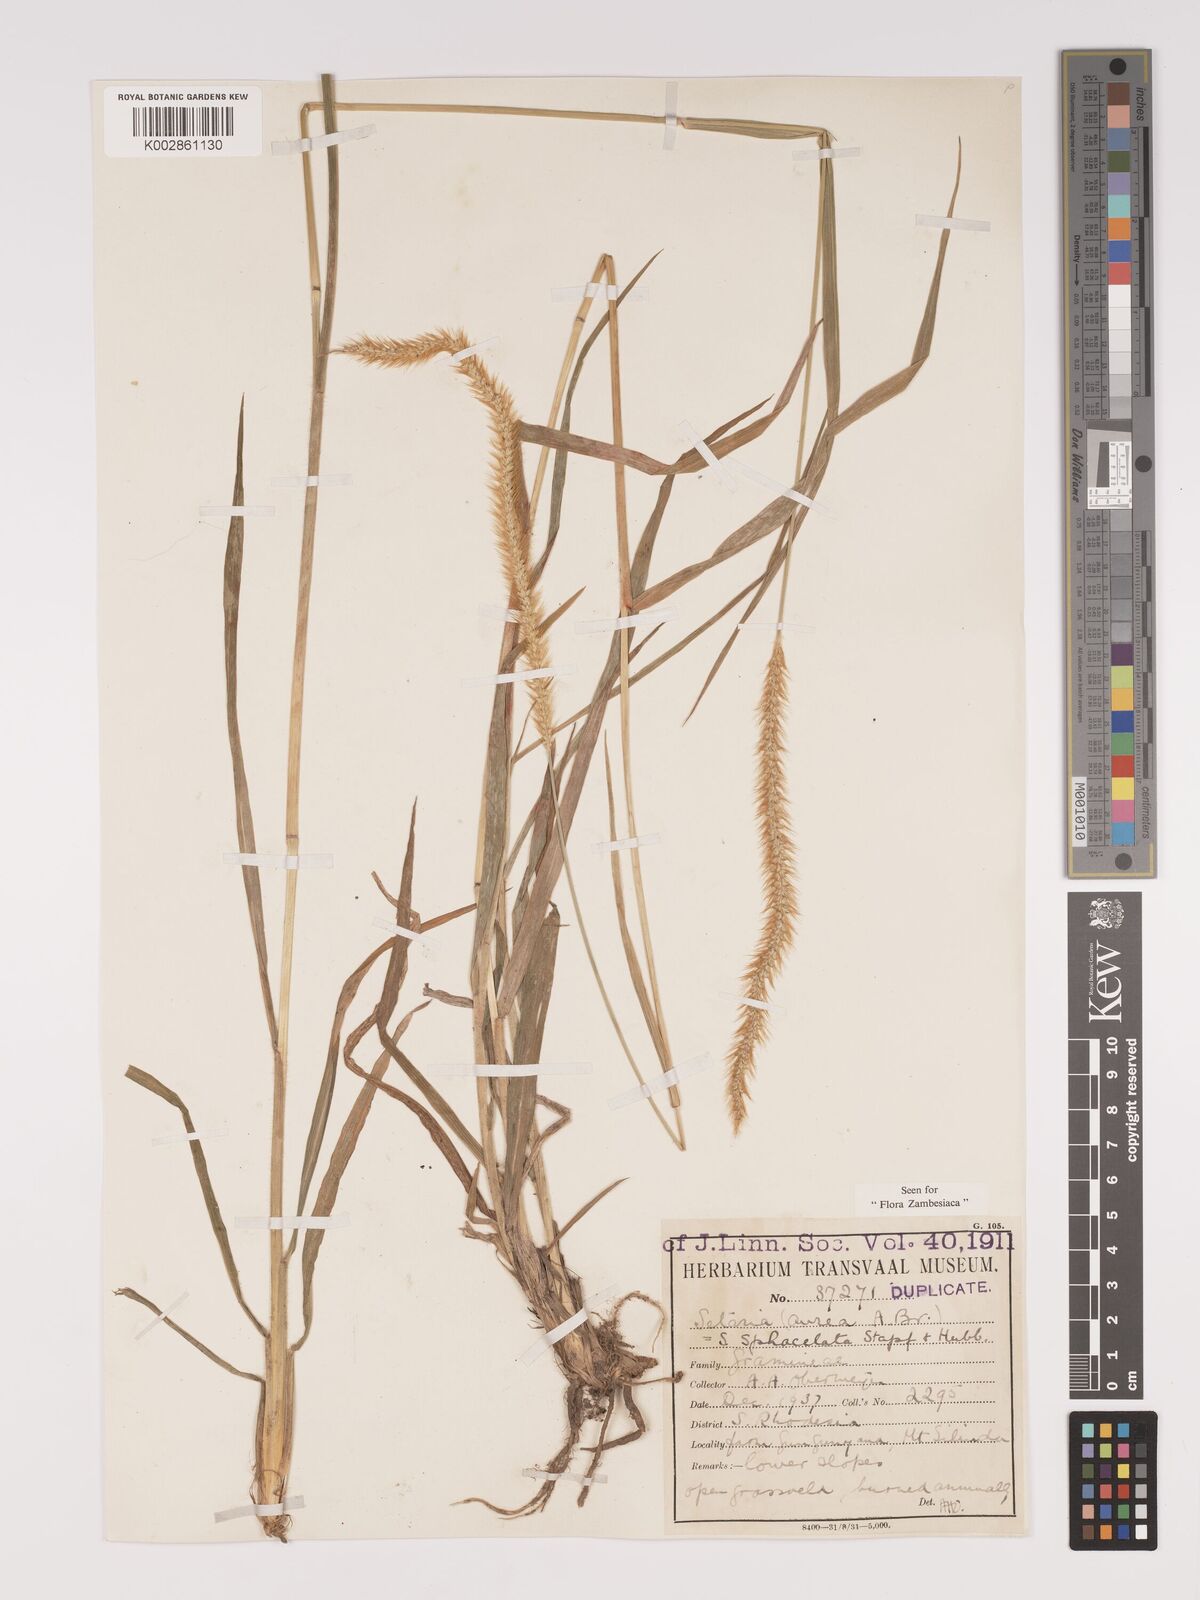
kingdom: Plantae
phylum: Tracheophyta
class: Liliopsida
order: Poales
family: Poaceae
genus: Setaria
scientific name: Setaria sphacelata
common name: African bristlegrass
